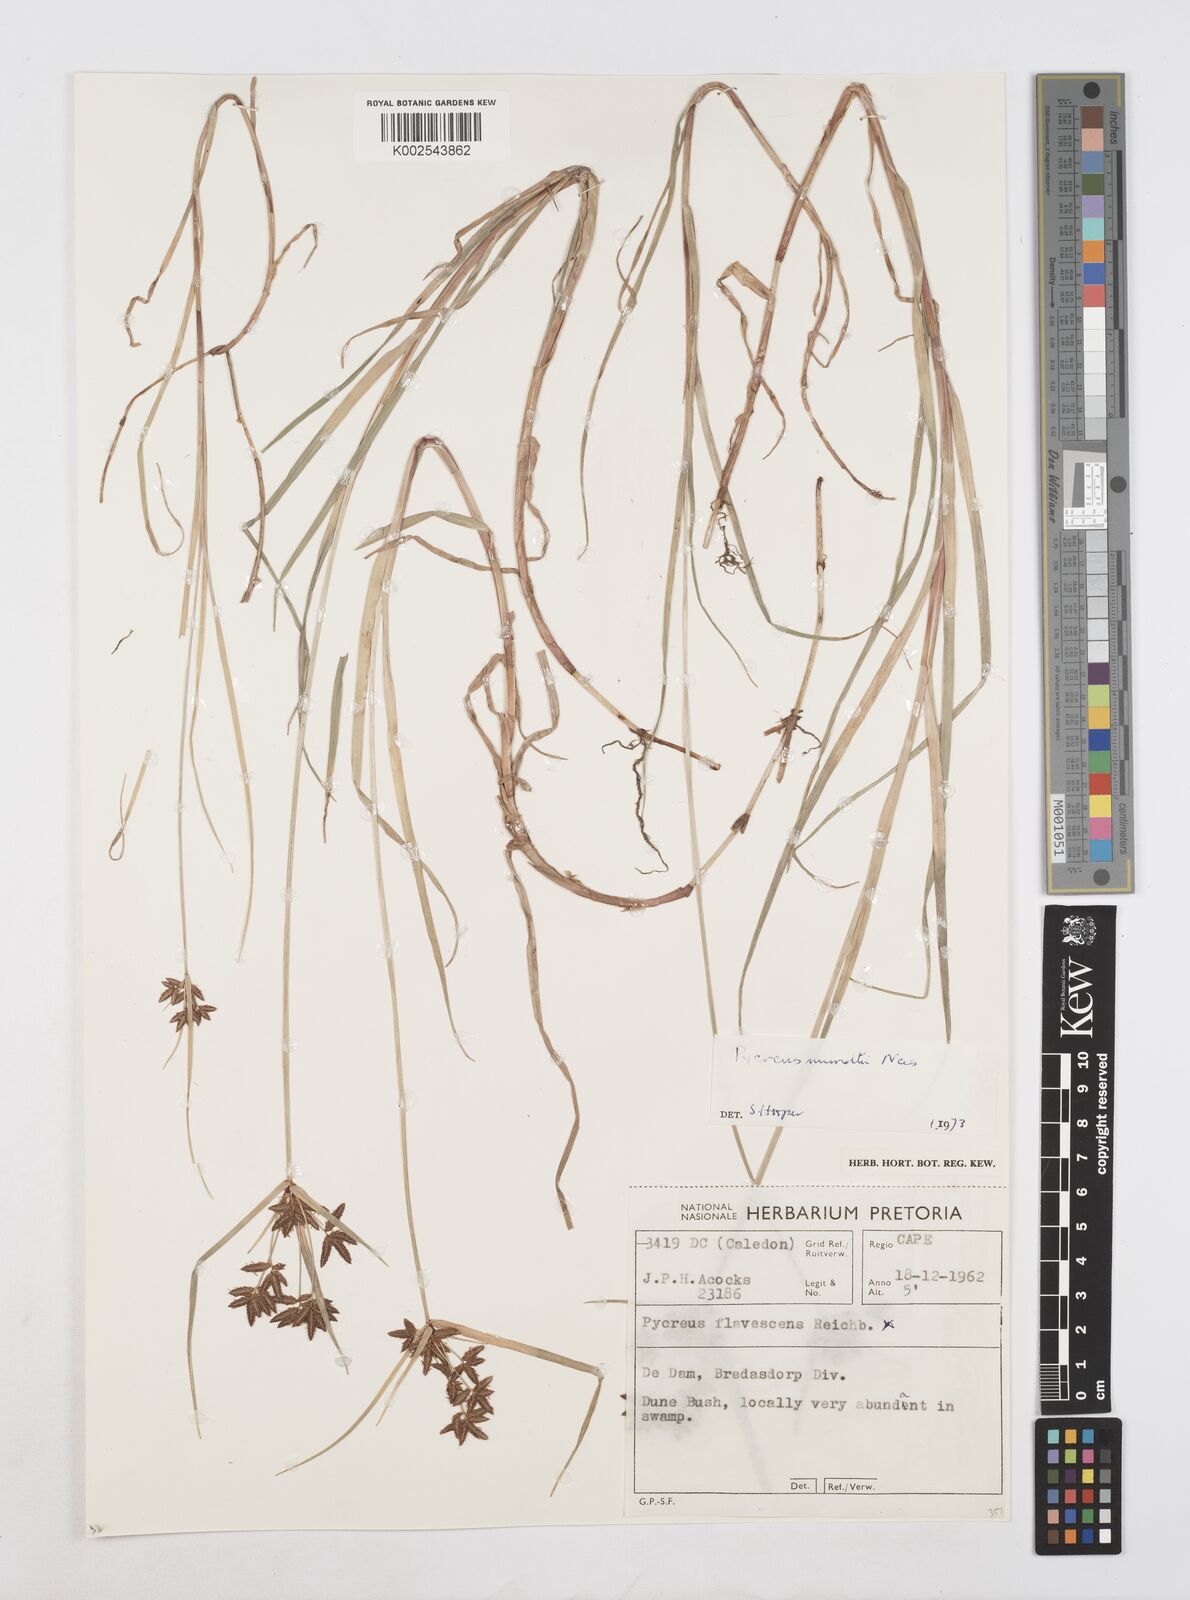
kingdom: Plantae
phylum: Tracheophyta
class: Liliopsida
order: Poales
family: Cyperaceae
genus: Cyperus
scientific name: Cyperus mundii
